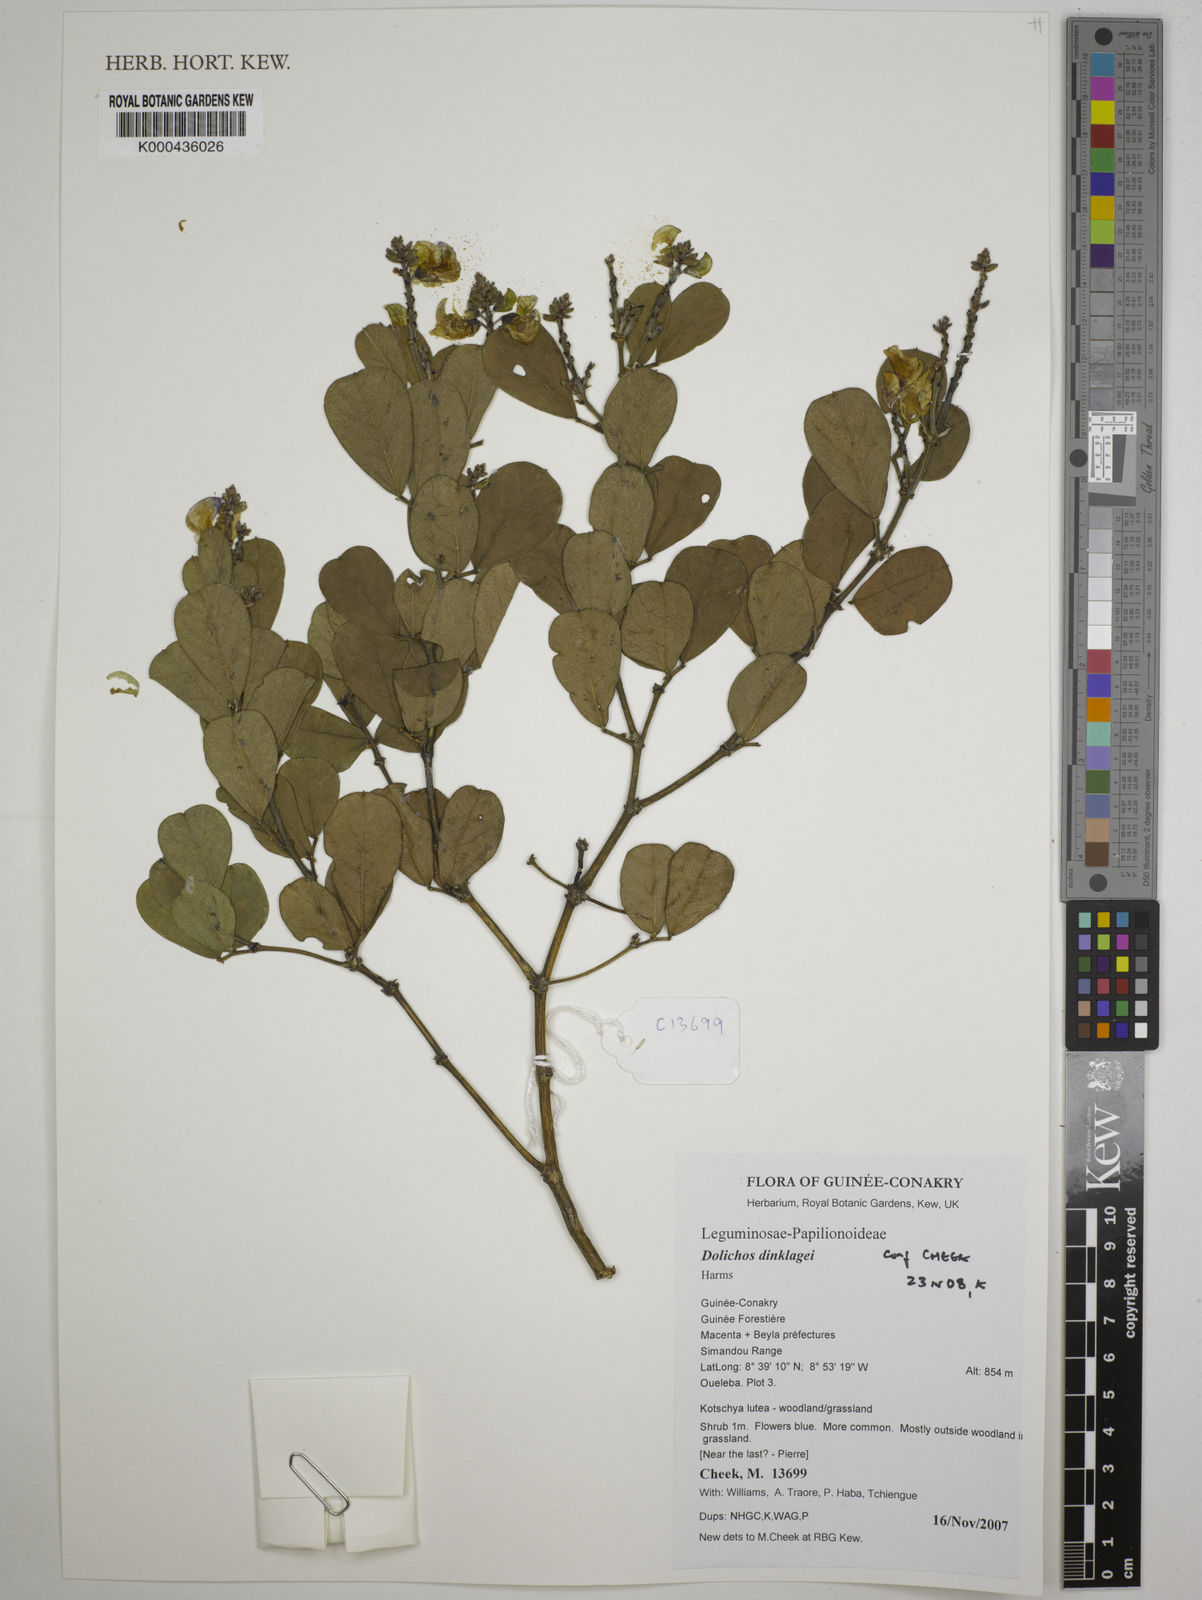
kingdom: Plantae
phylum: Tracheophyta
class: Magnoliopsida
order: Fabales
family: Fabaceae
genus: Dolichos
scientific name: Dolichos dinklagei
